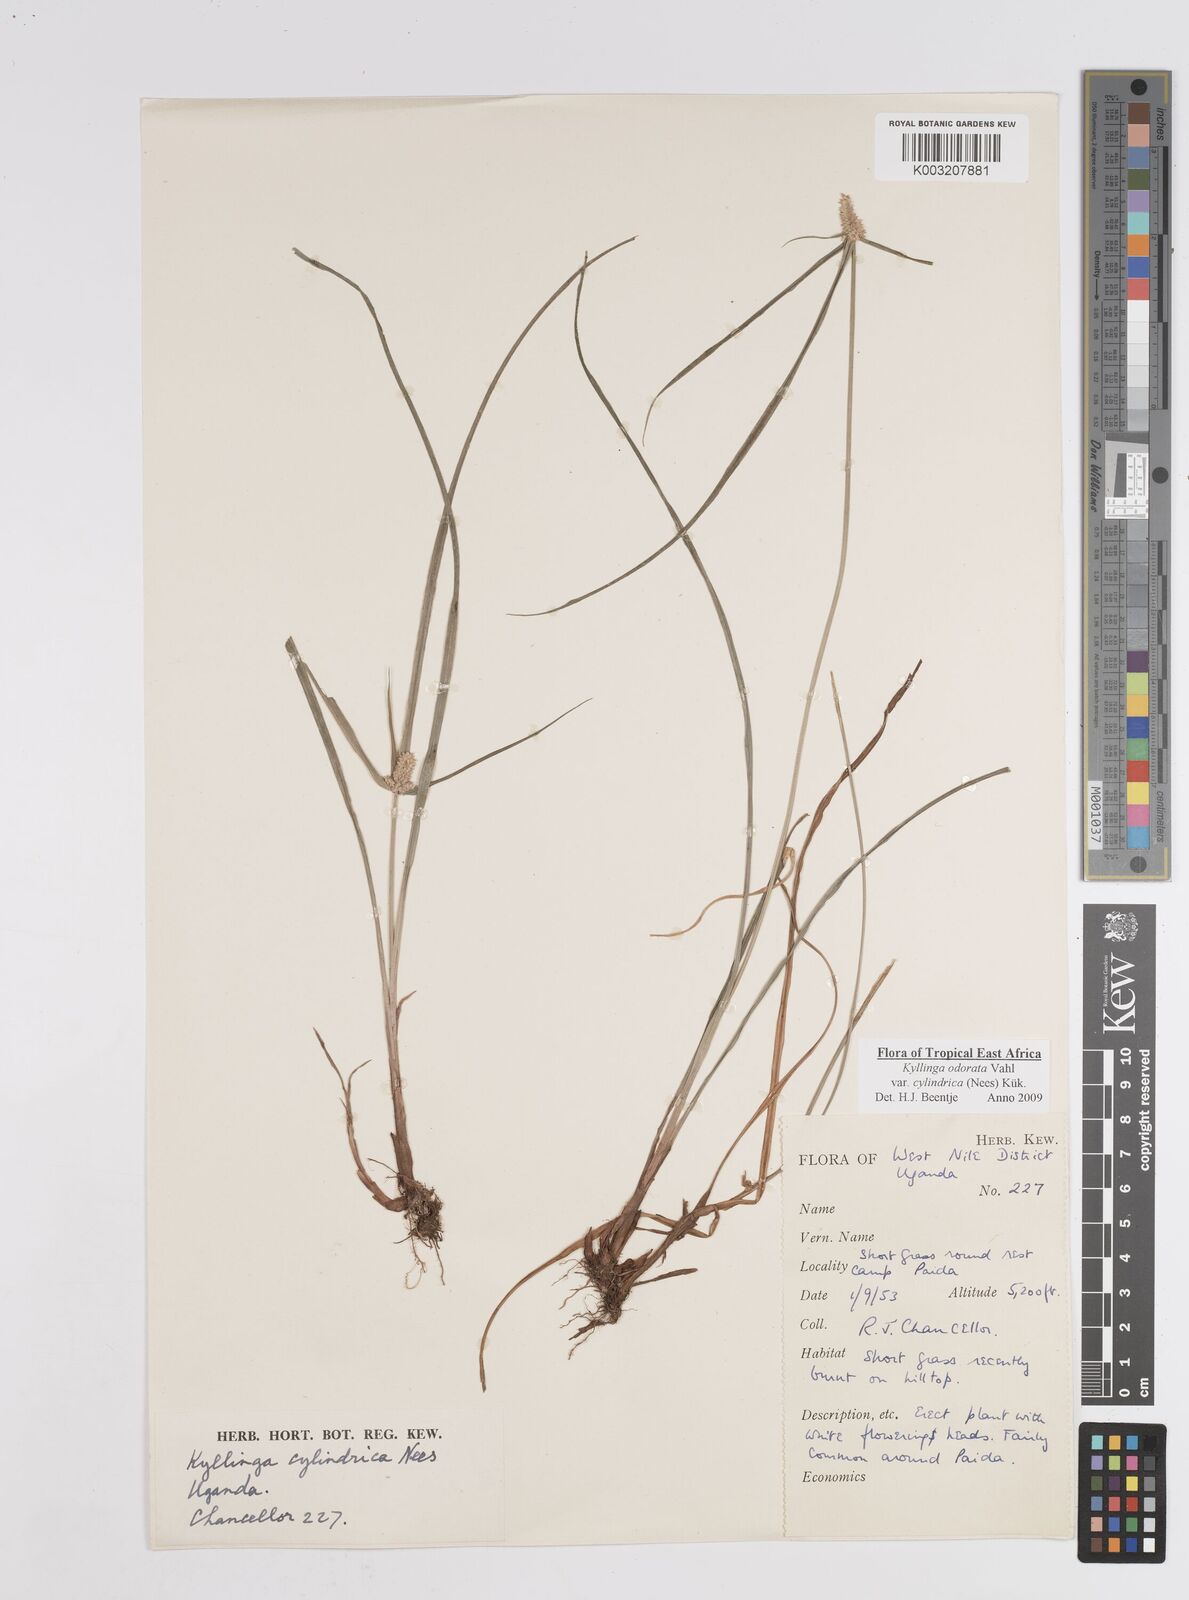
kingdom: Plantae
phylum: Tracheophyta
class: Liliopsida
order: Poales
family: Cyperaceae
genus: Cyperus
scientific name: Cyperus
